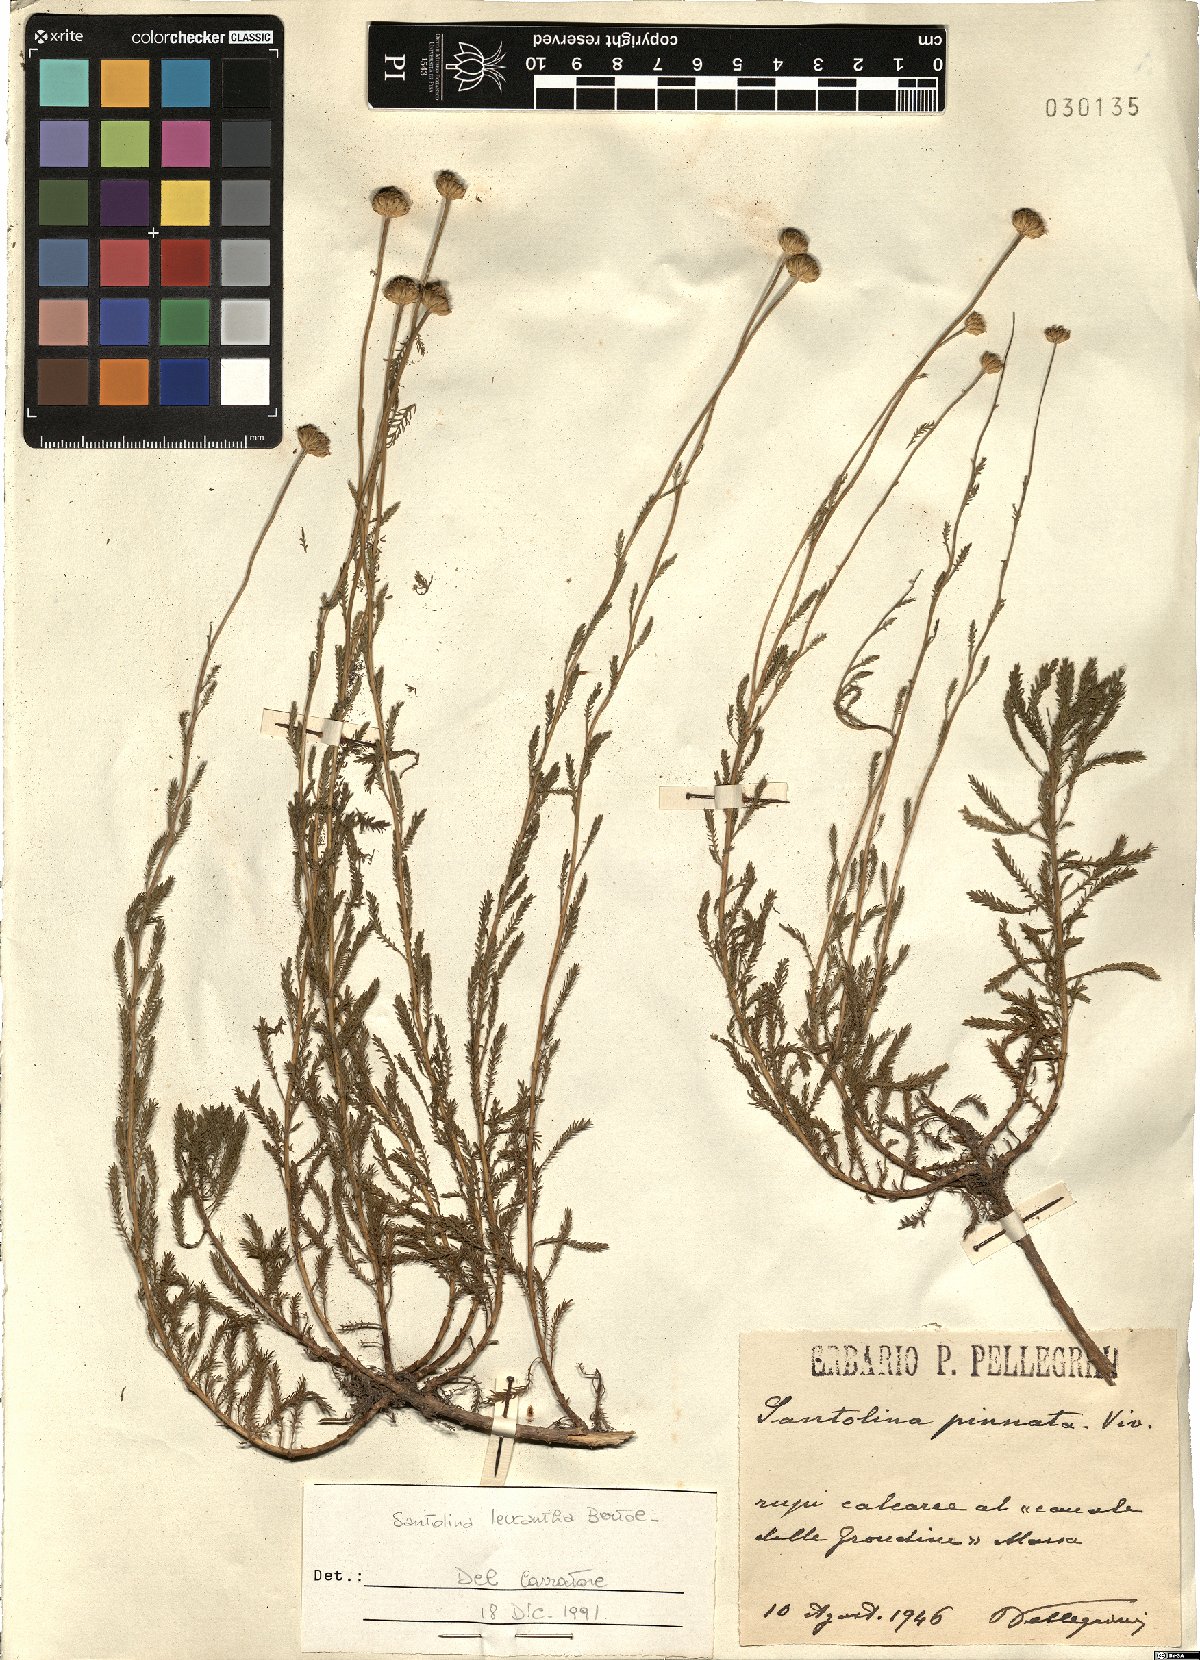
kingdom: Plantae
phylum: Tracheophyta
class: Magnoliopsida
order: Asterales
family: Asteraceae
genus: Santolina
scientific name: Santolina pinnata
